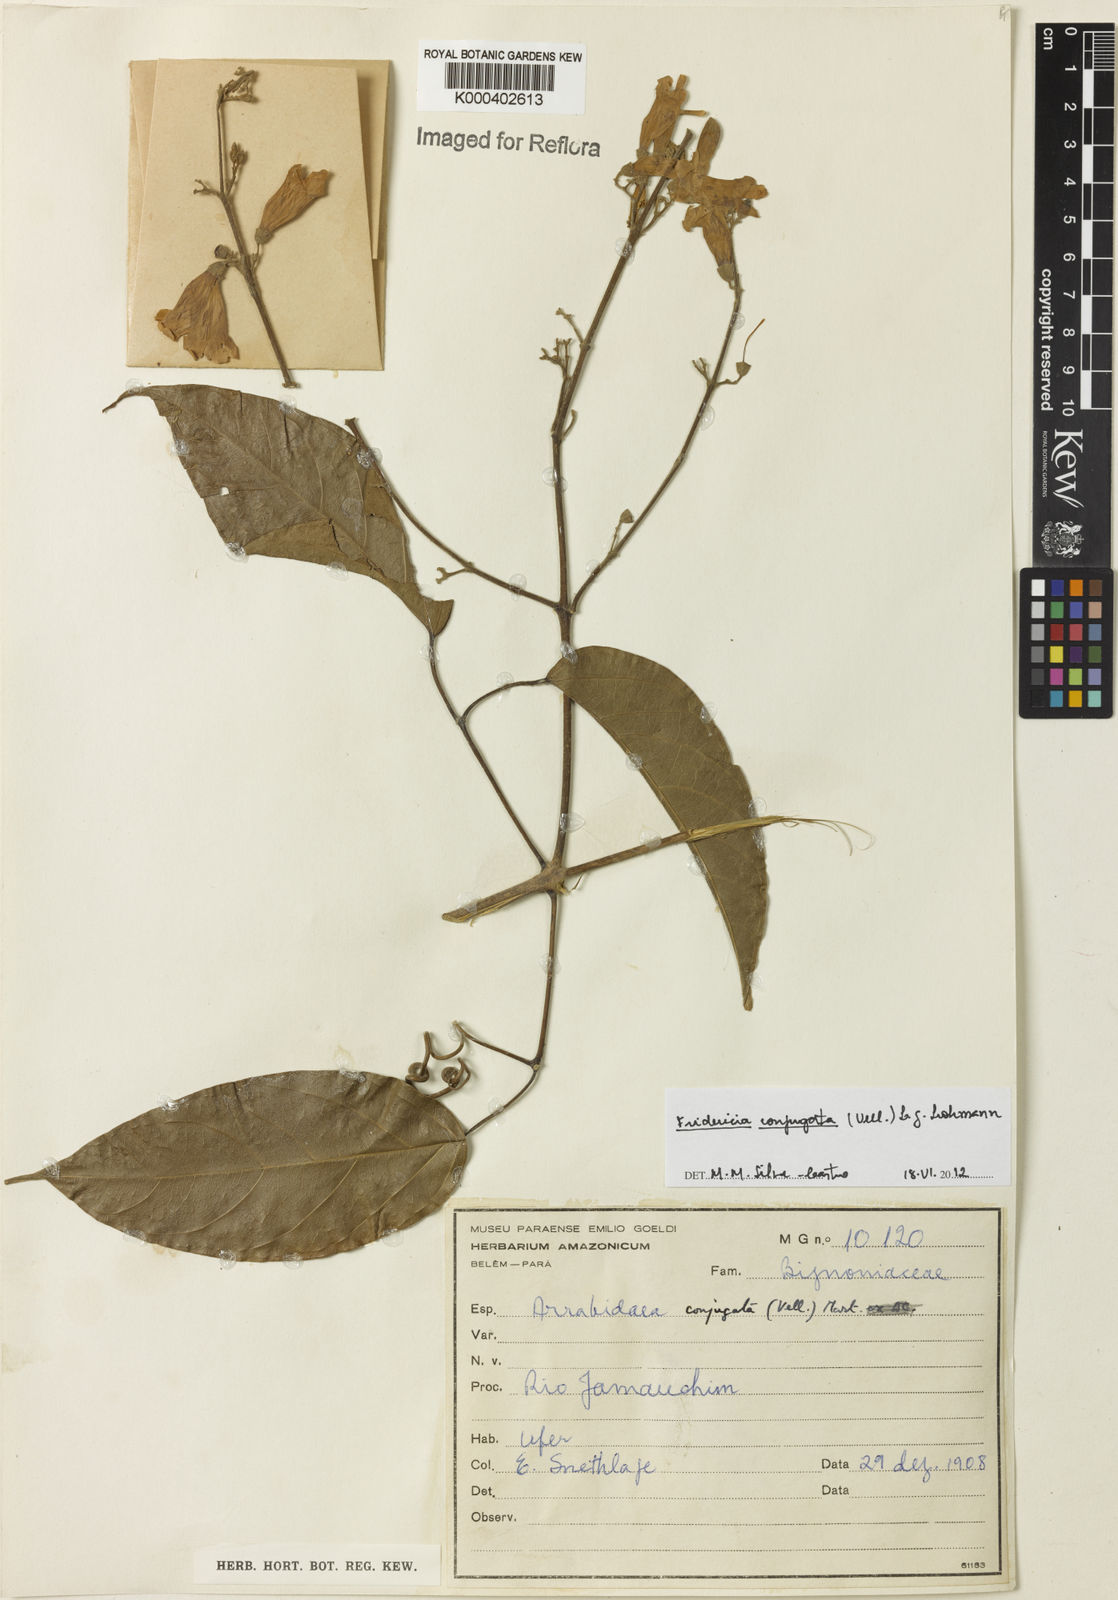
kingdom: Plantae
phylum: Tracheophyta
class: Magnoliopsida
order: Lamiales
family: Bignoniaceae
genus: Fridericia
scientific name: Fridericia conjugata
